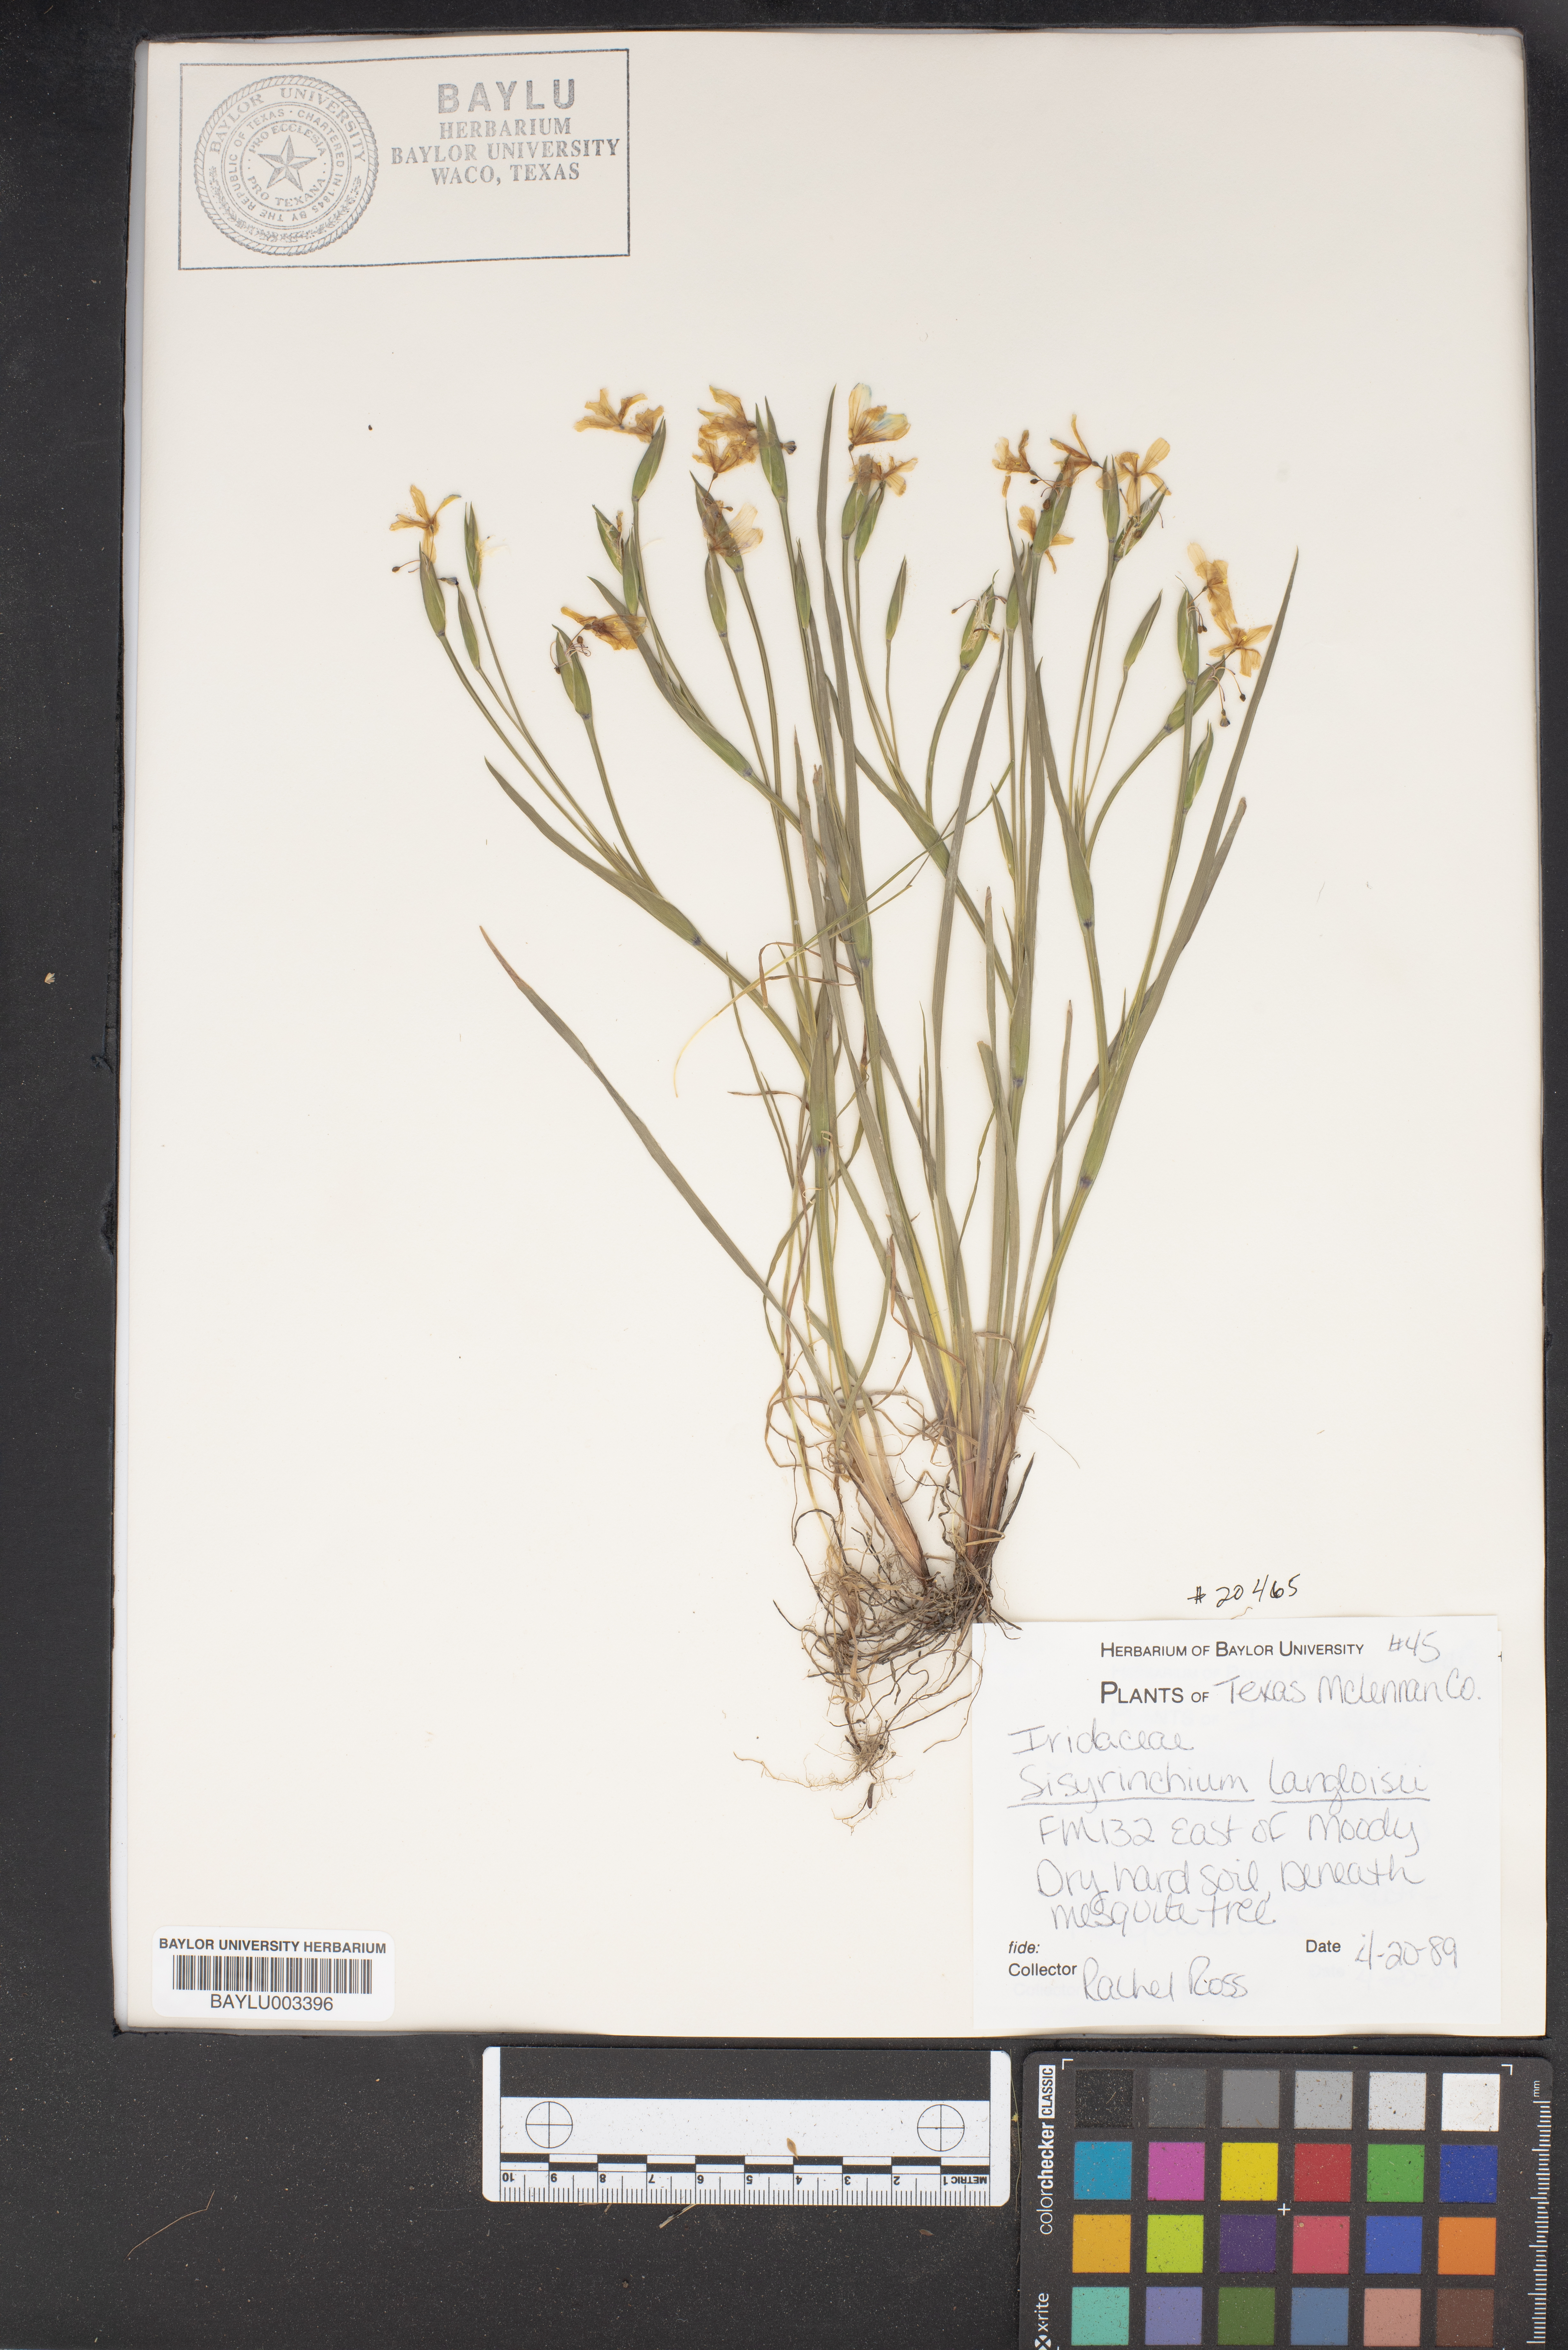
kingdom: Plantae
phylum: Tracheophyta
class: Liliopsida
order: Asparagales
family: Iridaceae
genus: Sisyrinchium
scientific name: Sisyrinchium langloisii
